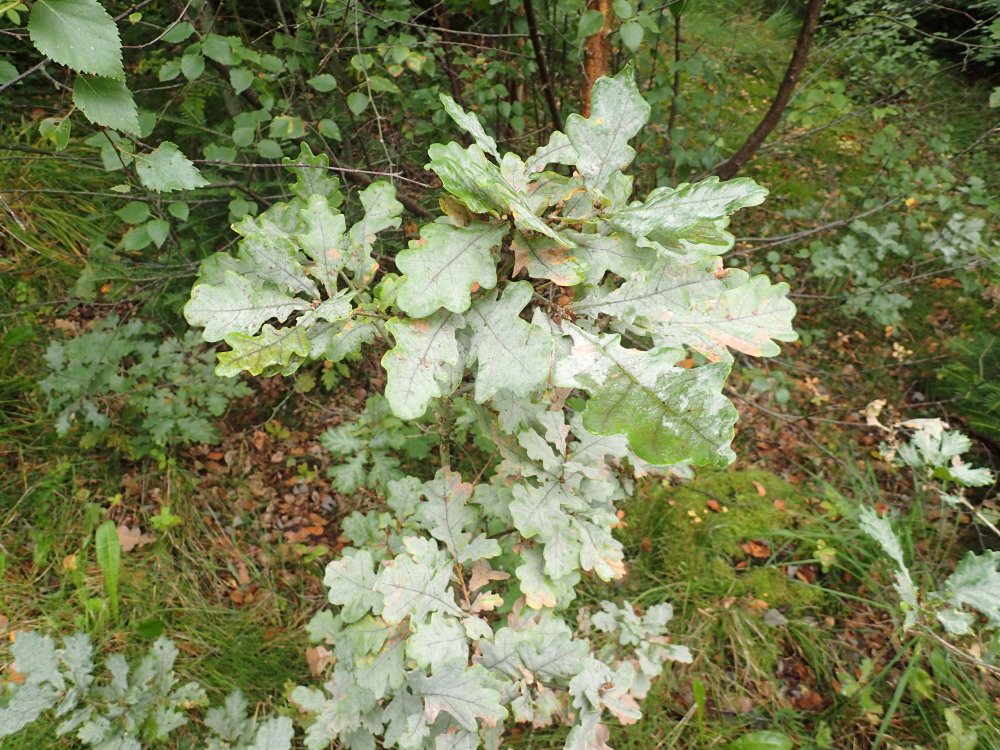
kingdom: Fungi
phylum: Ascomycota
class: Leotiomycetes
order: Helotiales
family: Erysiphaceae
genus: Erysiphe
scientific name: Erysiphe alphitoides
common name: ege-meldug
